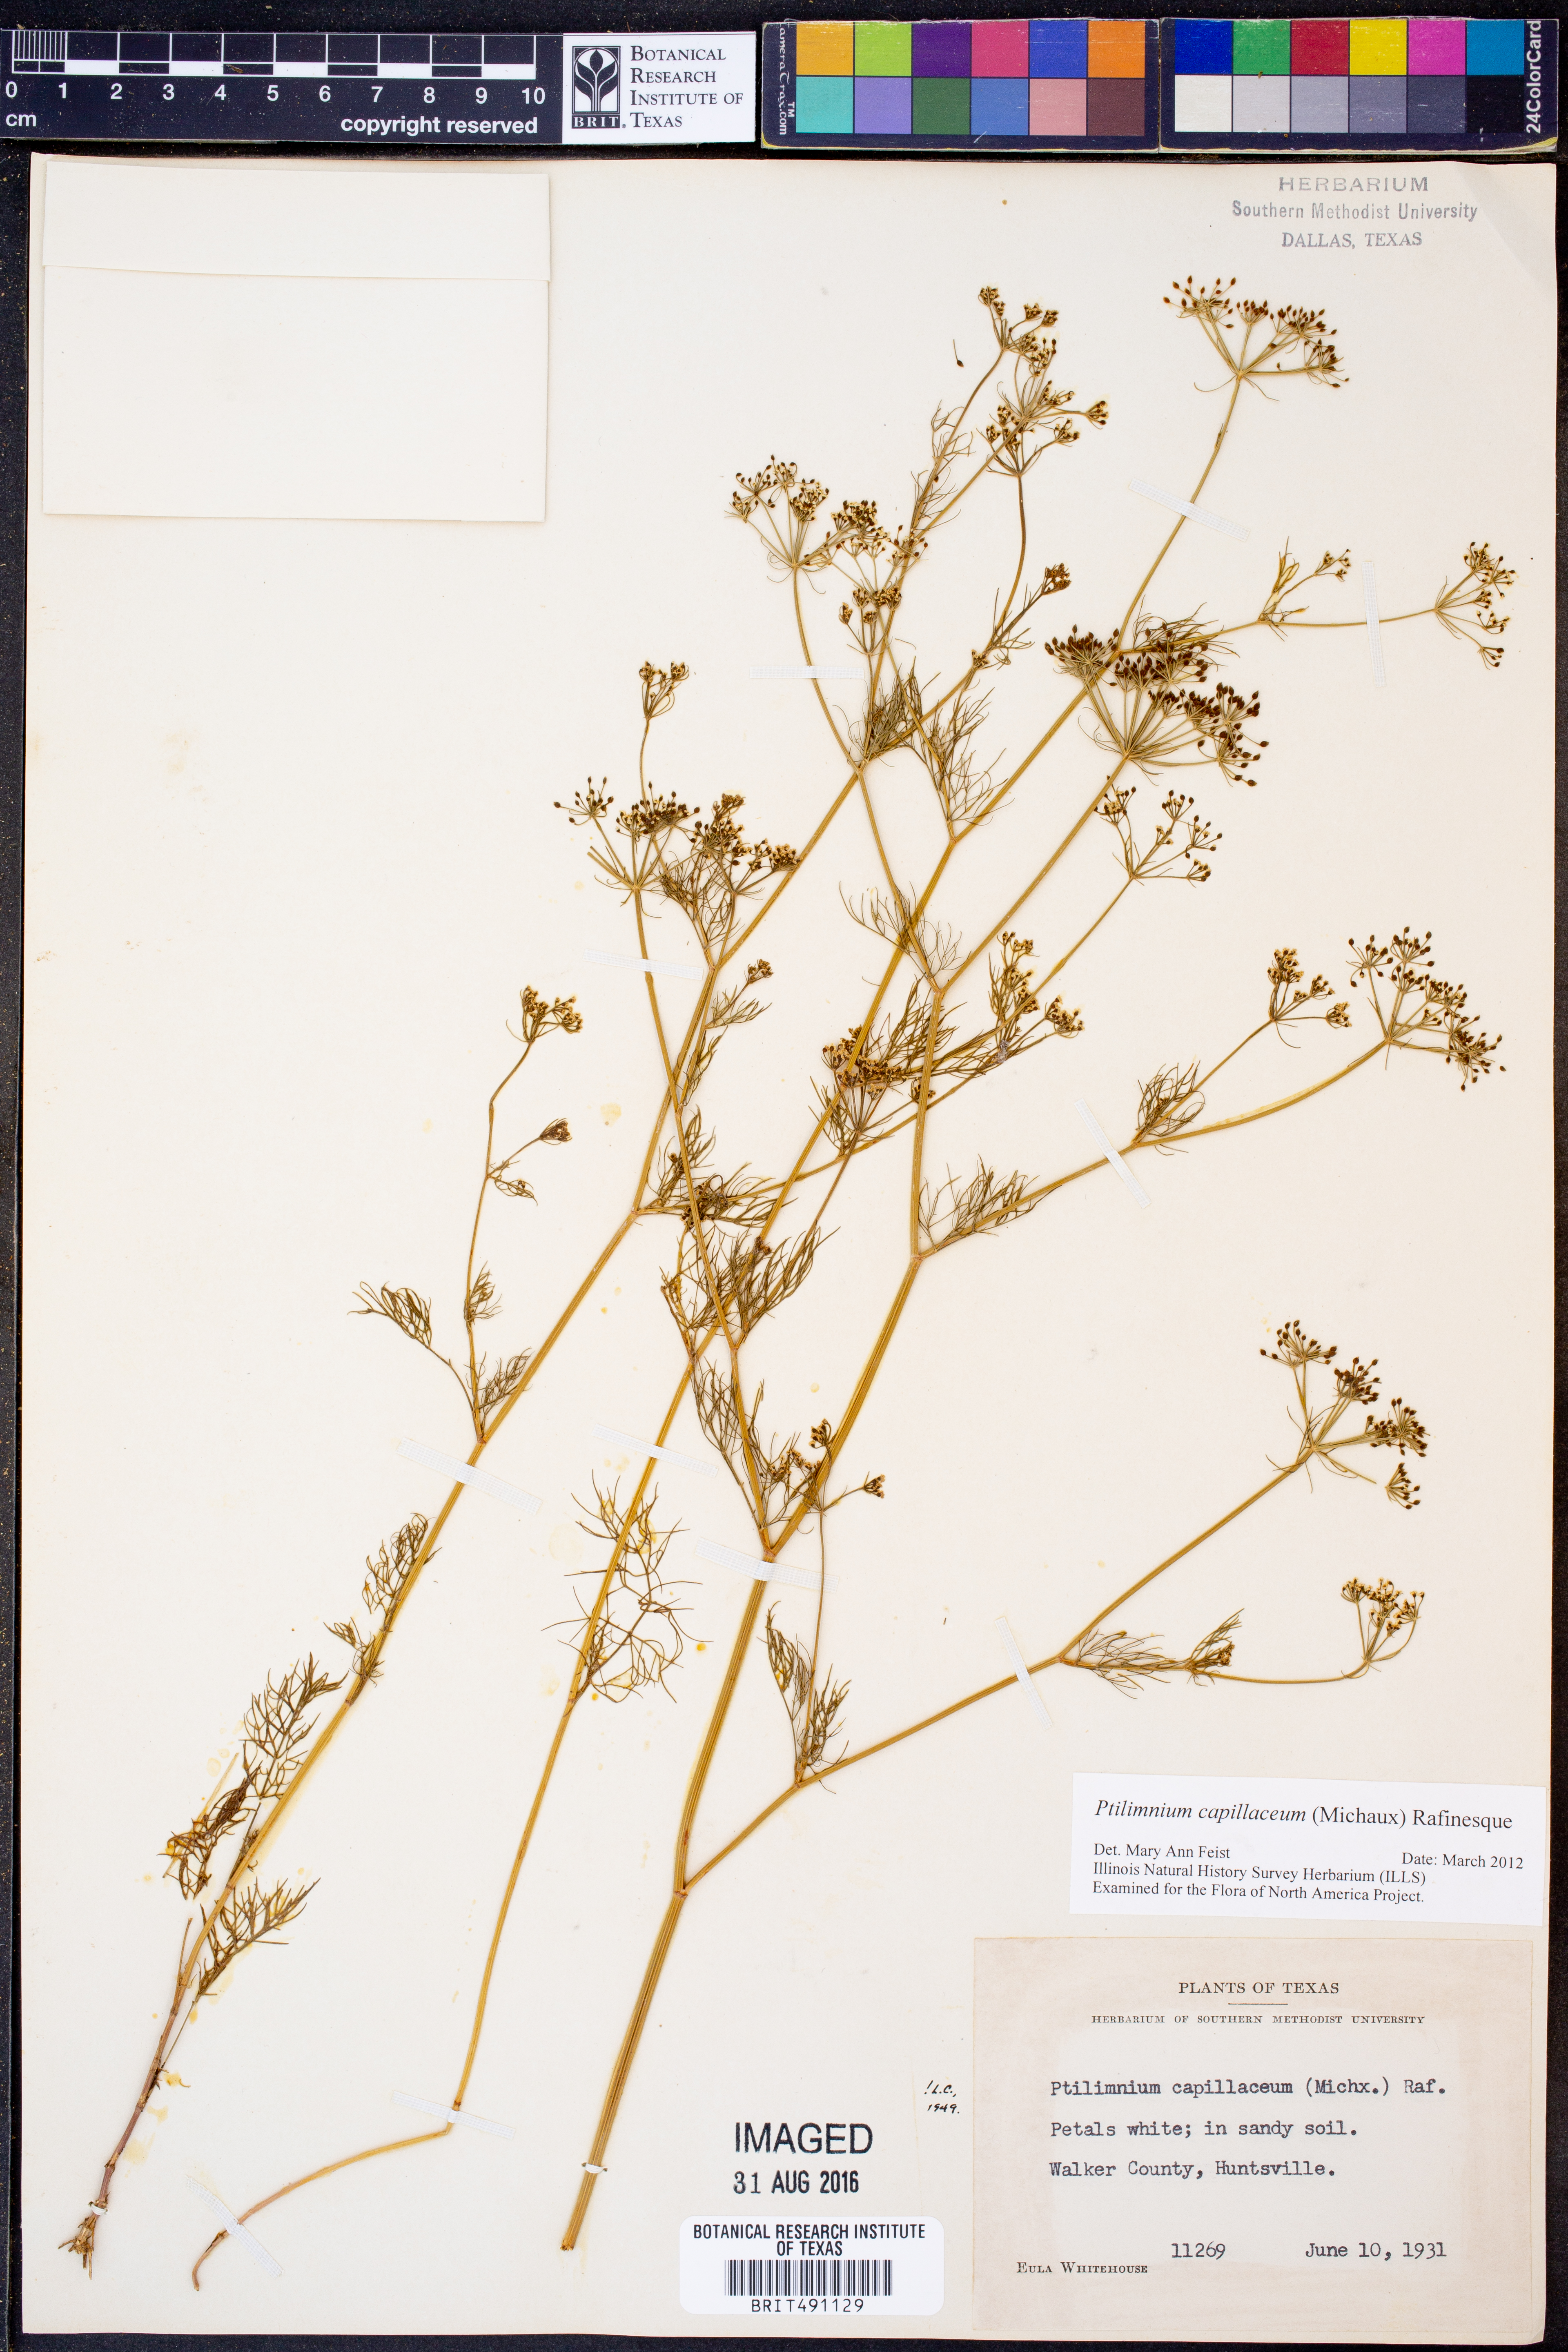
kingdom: Plantae
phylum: Tracheophyta
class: Magnoliopsida
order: Apiales
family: Apiaceae
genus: Ptilimnium
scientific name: Ptilimnium capillaceum
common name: Herbwilliam
